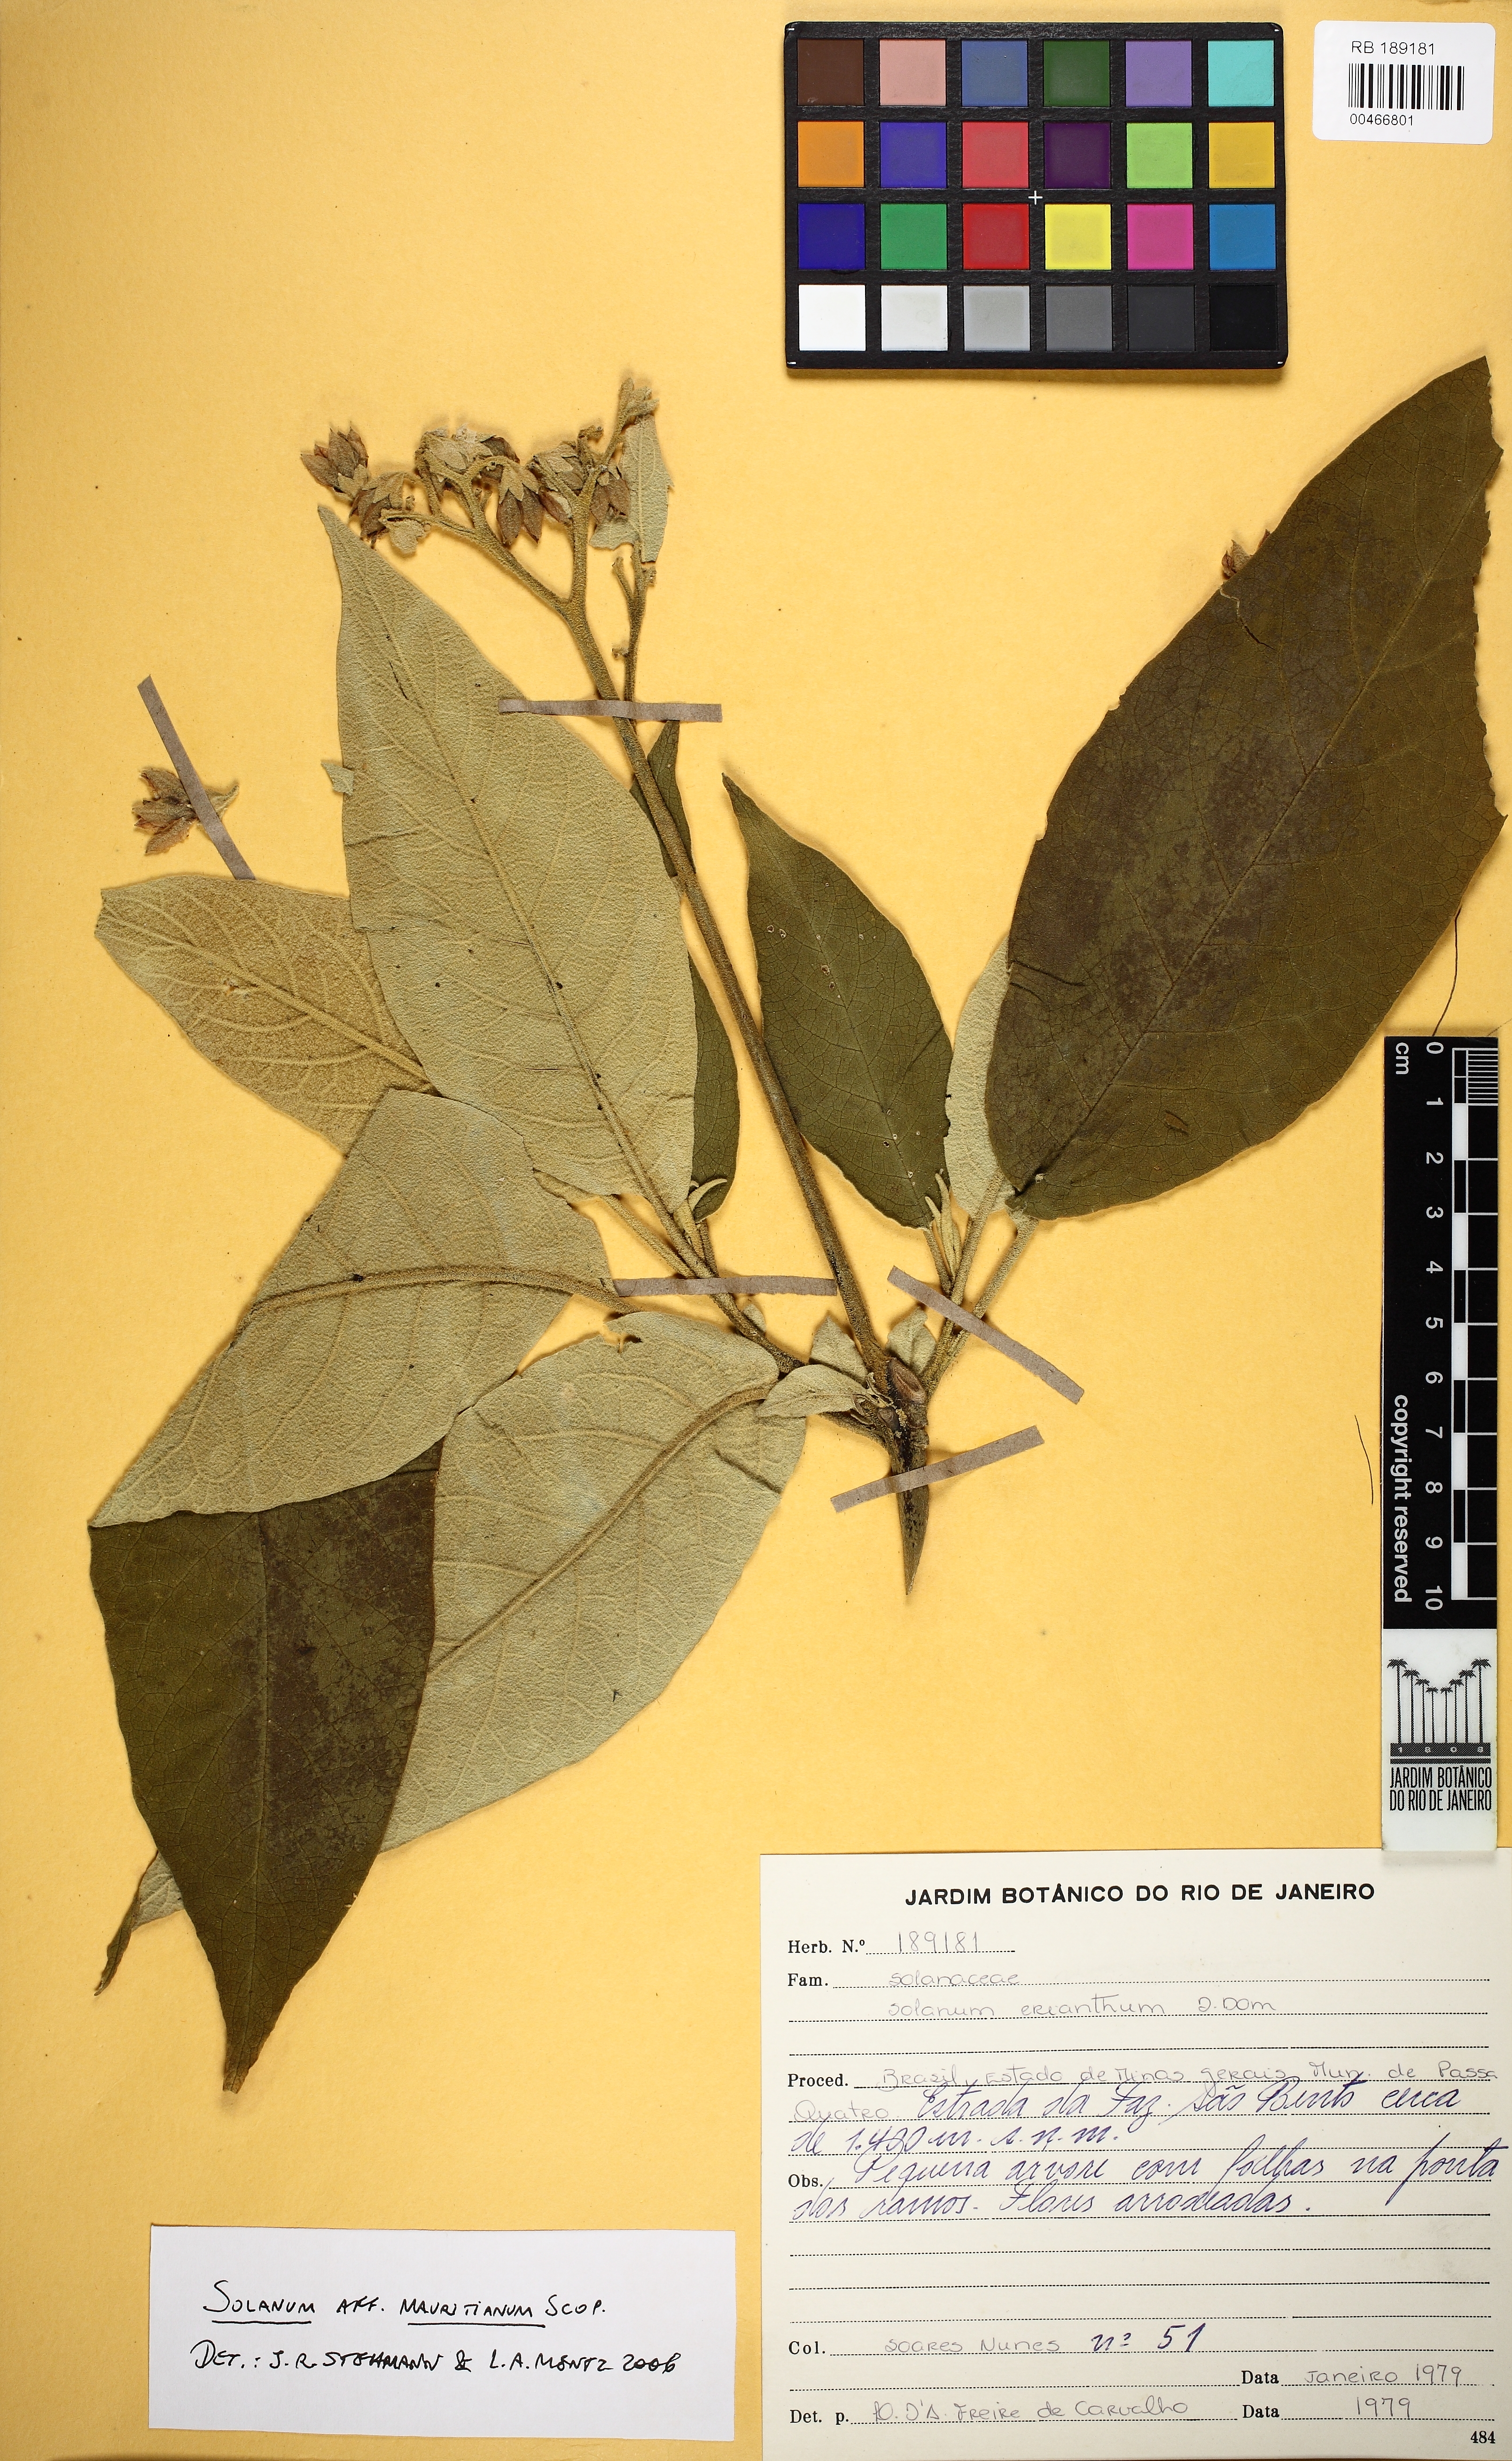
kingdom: Plantae
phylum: Tracheophyta
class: Magnoliopsida
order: Solanales
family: Solanaceae
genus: Solanum
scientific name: Solanum mauritianum
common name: Earleaf nightshade
